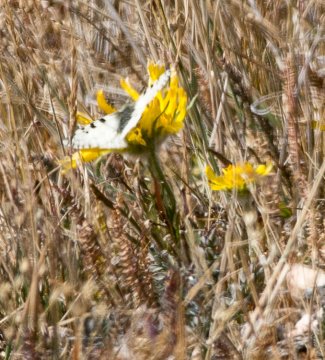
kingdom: Animalia
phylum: Arthropoda
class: Insecta
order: Lepidoptera
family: Papilionidae
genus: Parnassius
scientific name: Parnassius smintheus
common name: Rocky Mountain Parnassian
